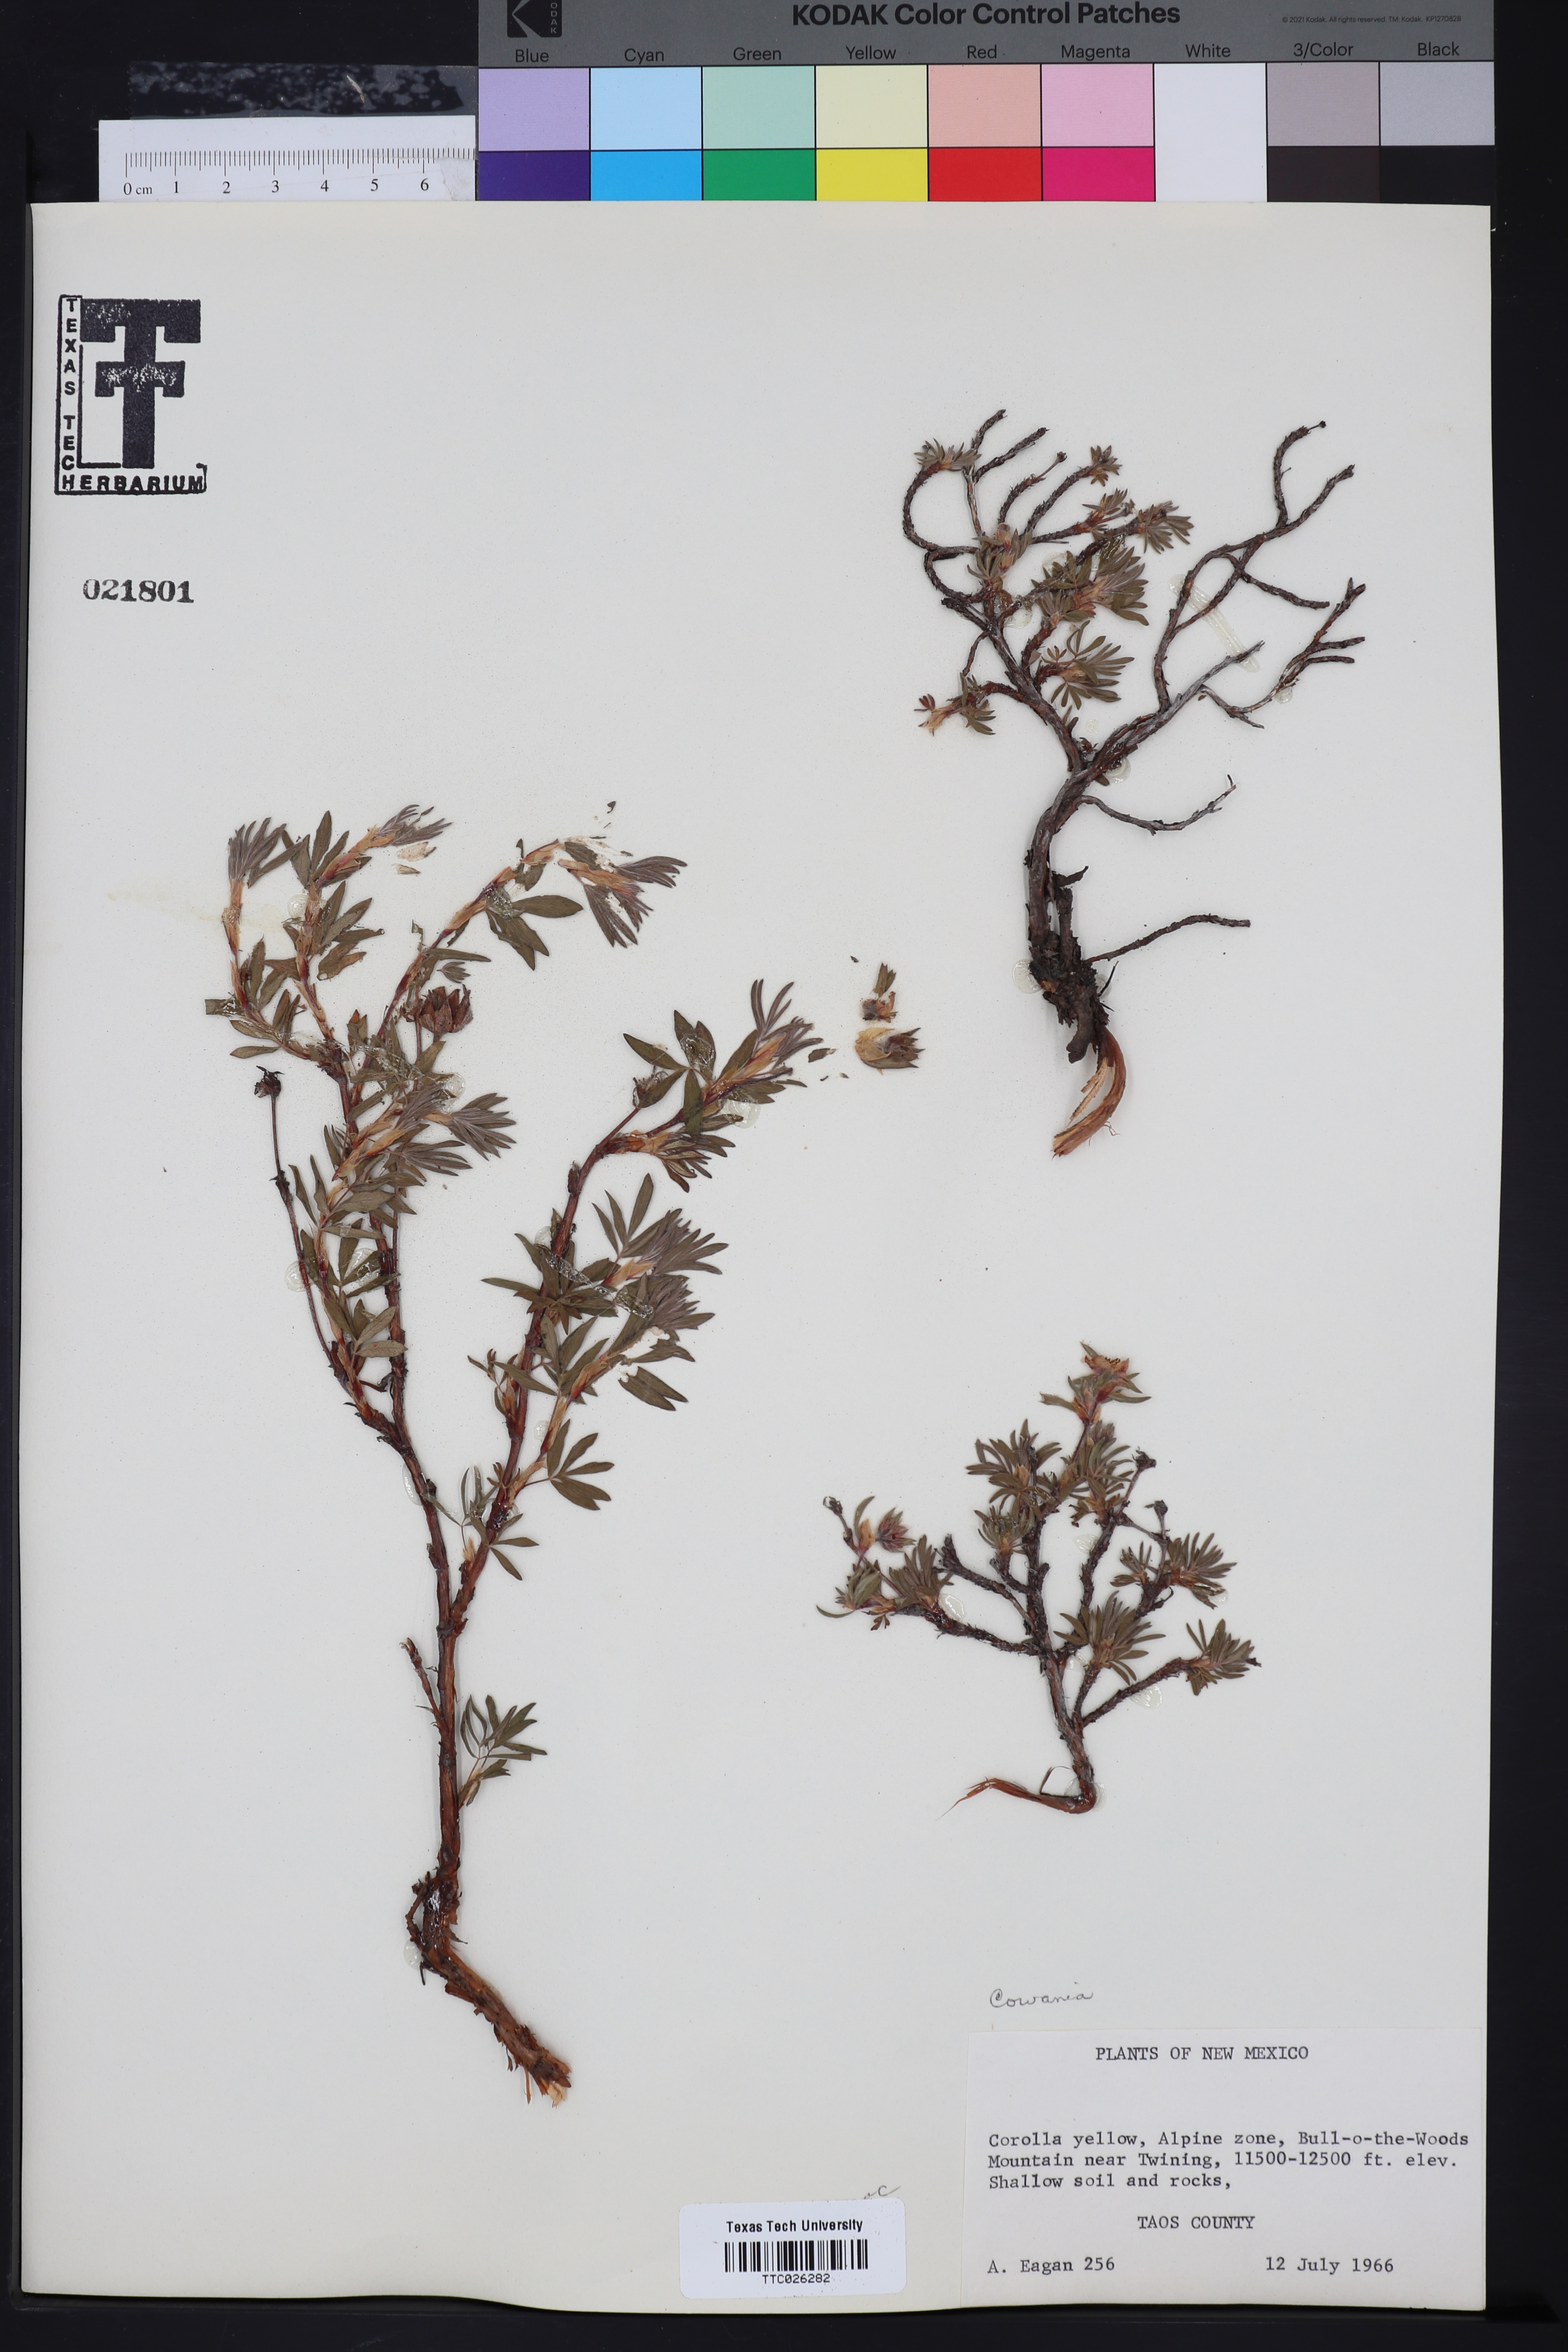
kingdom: Plantae
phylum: Tracheophyta
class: Magnoliopsida
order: Rosales
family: Rosaceae
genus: Purshia
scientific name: Purshia
